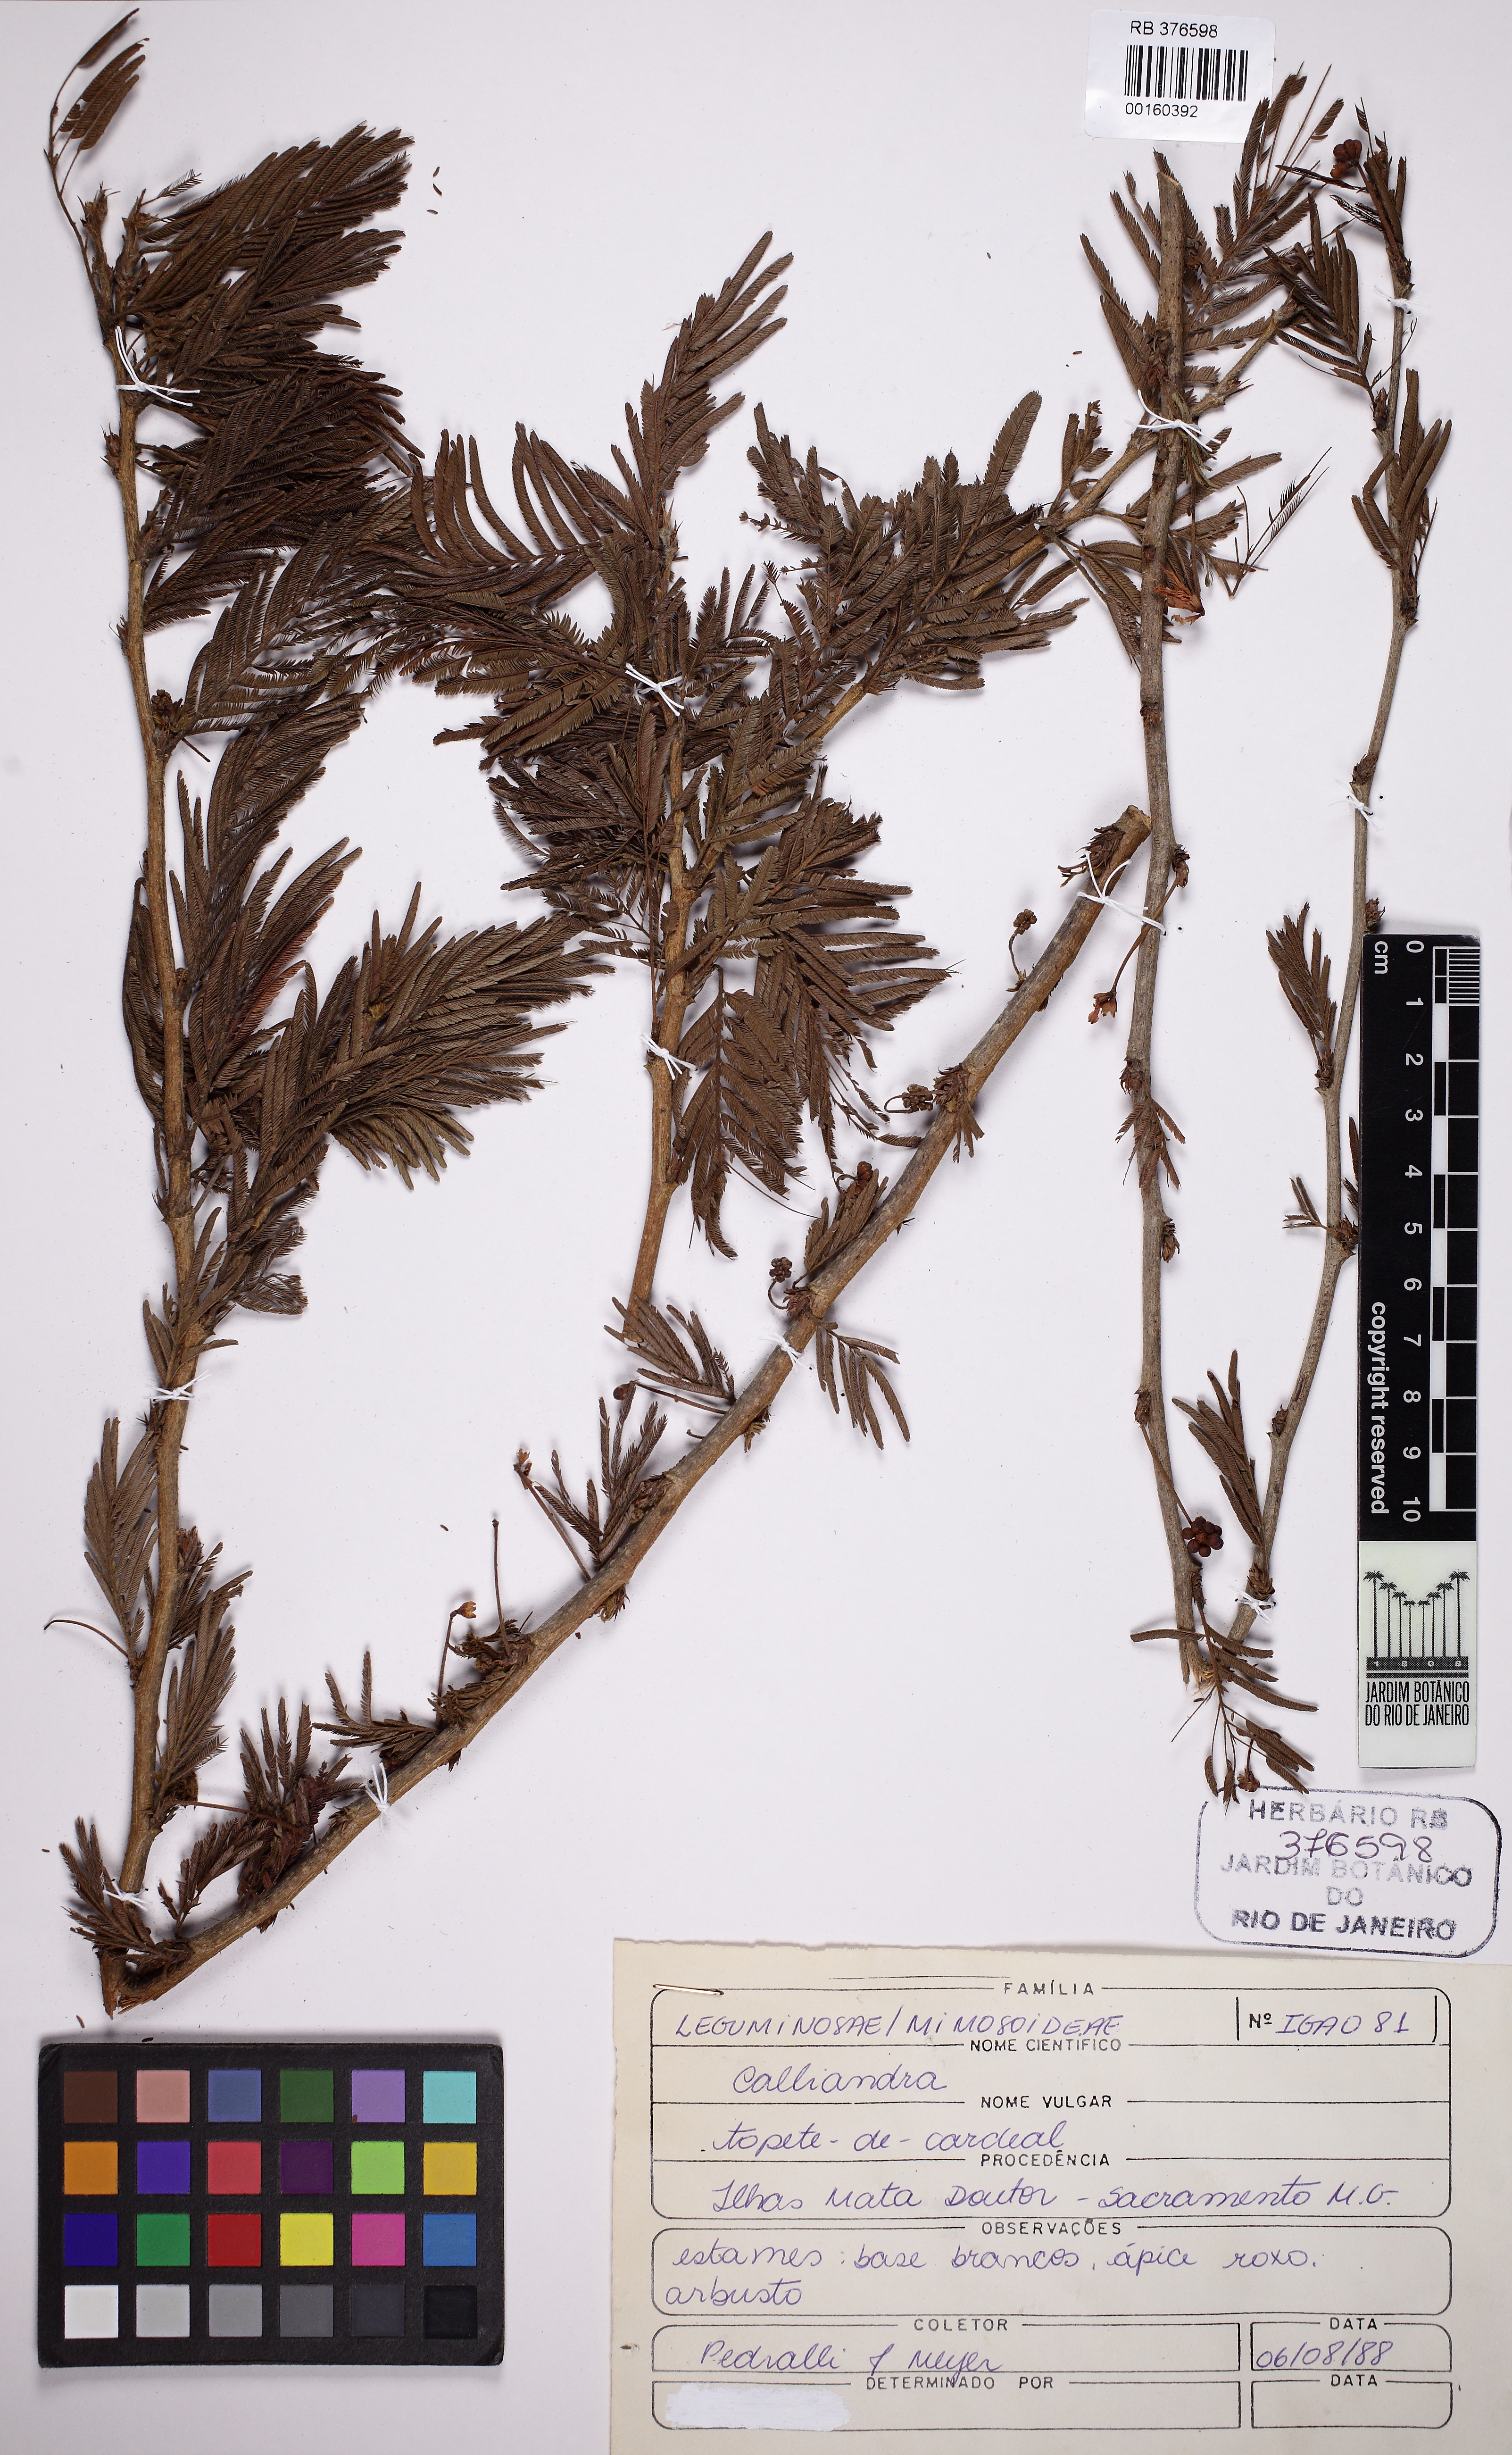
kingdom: Plantae
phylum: Tracheophyta
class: Magnoliopsida
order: Fabales
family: Fabaceae
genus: Calliandra
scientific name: Calliandra
